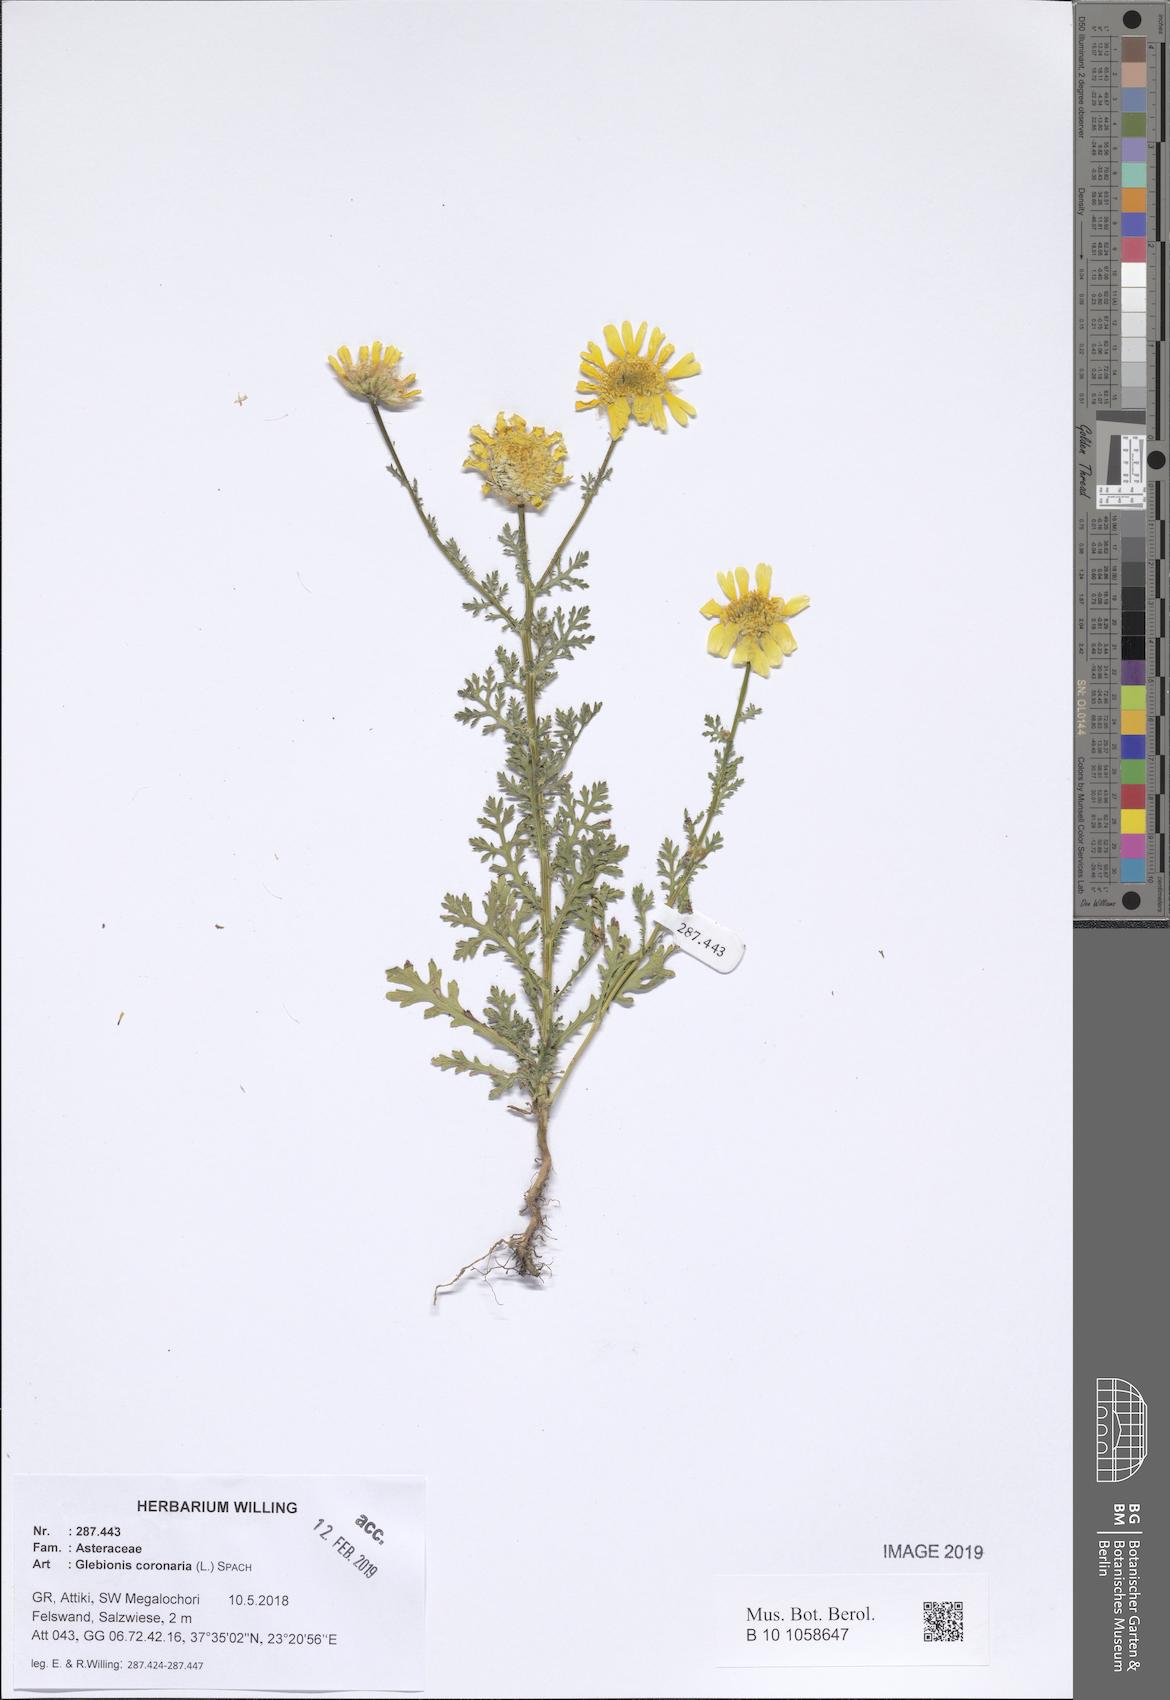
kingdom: Plantae
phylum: Tracheophyta
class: Magnoliopsida
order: Asterales
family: Asteraceae
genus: Glebionis
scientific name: Glebionis coronaria
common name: Crowndaisy
